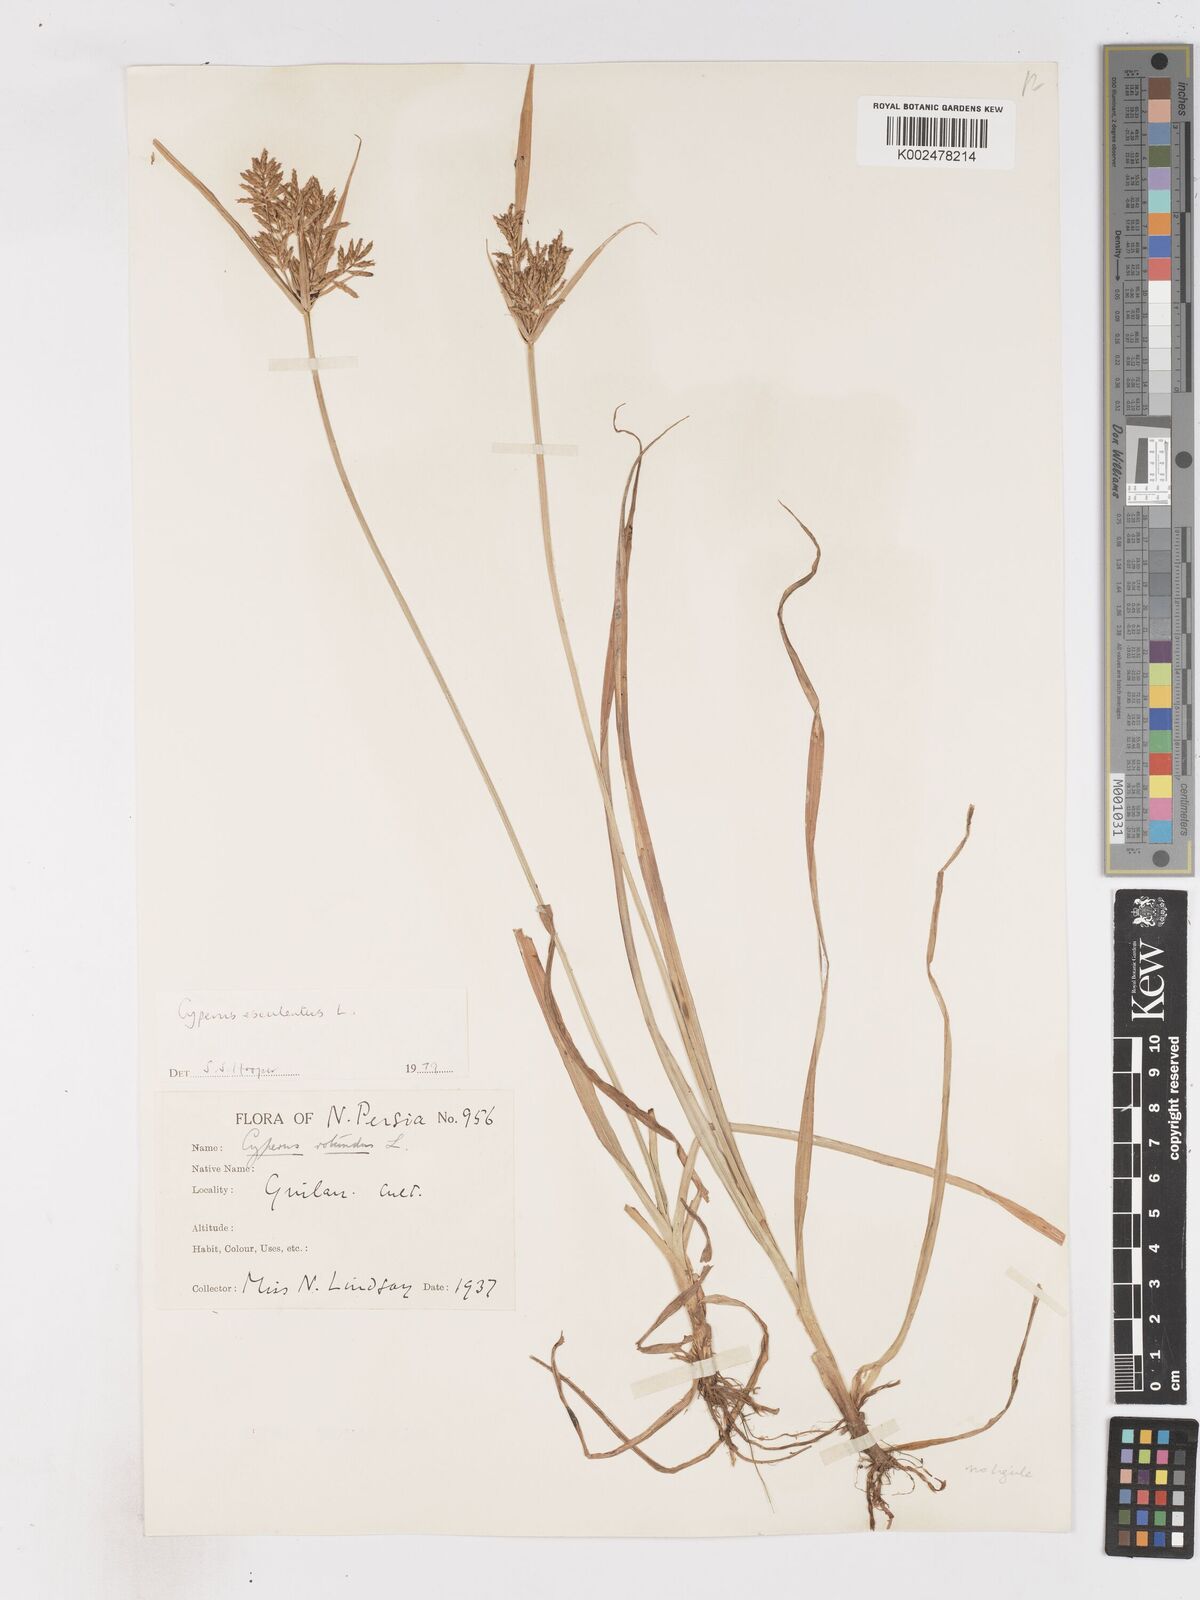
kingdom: Plantae
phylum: Tracheophyta
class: Liliopsida
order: Poales
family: Cyperaceae
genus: Cyperus
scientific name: Cyperus esculentus
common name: Yellow nutsedge
